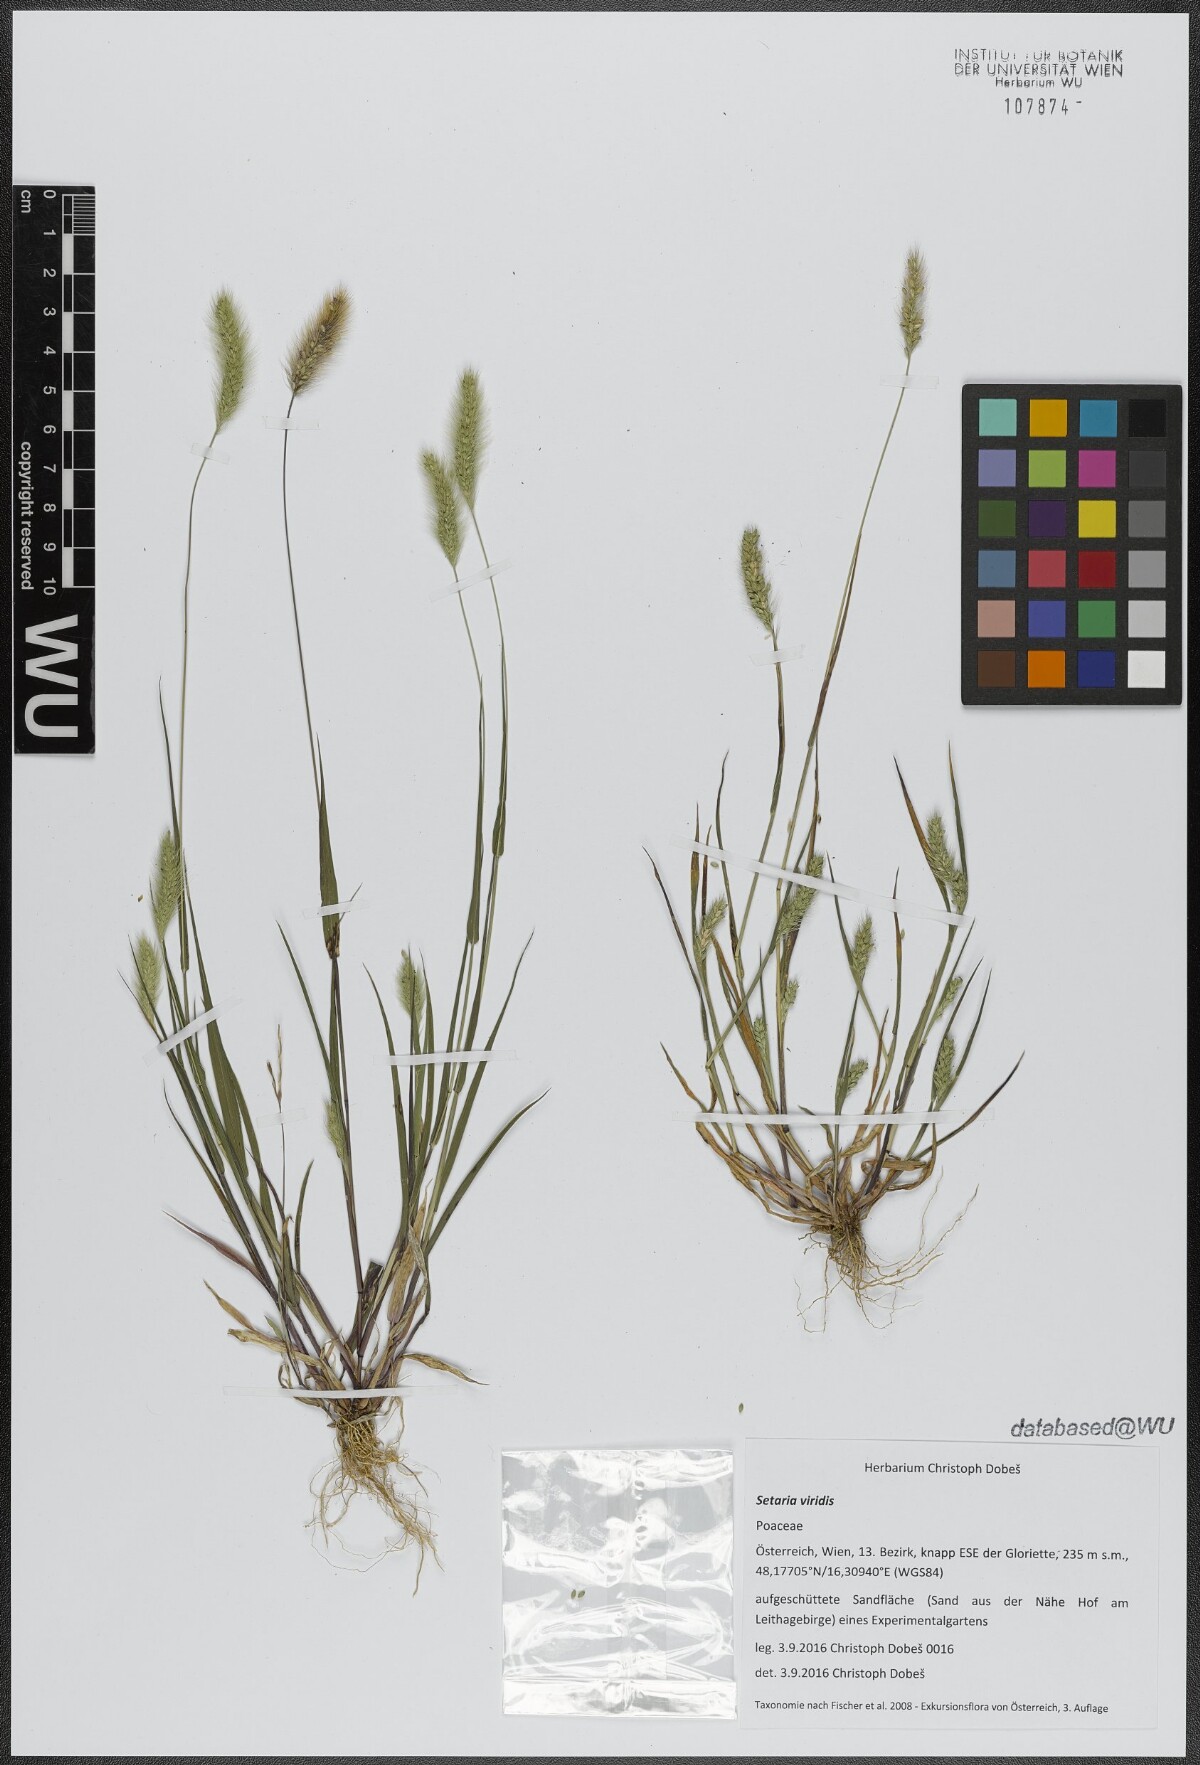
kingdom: Plantae
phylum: Tracheophyta
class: Liliopsida
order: Poales
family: Poaceae
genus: Setaria
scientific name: Setaria viridis
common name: Green bristlegrass
